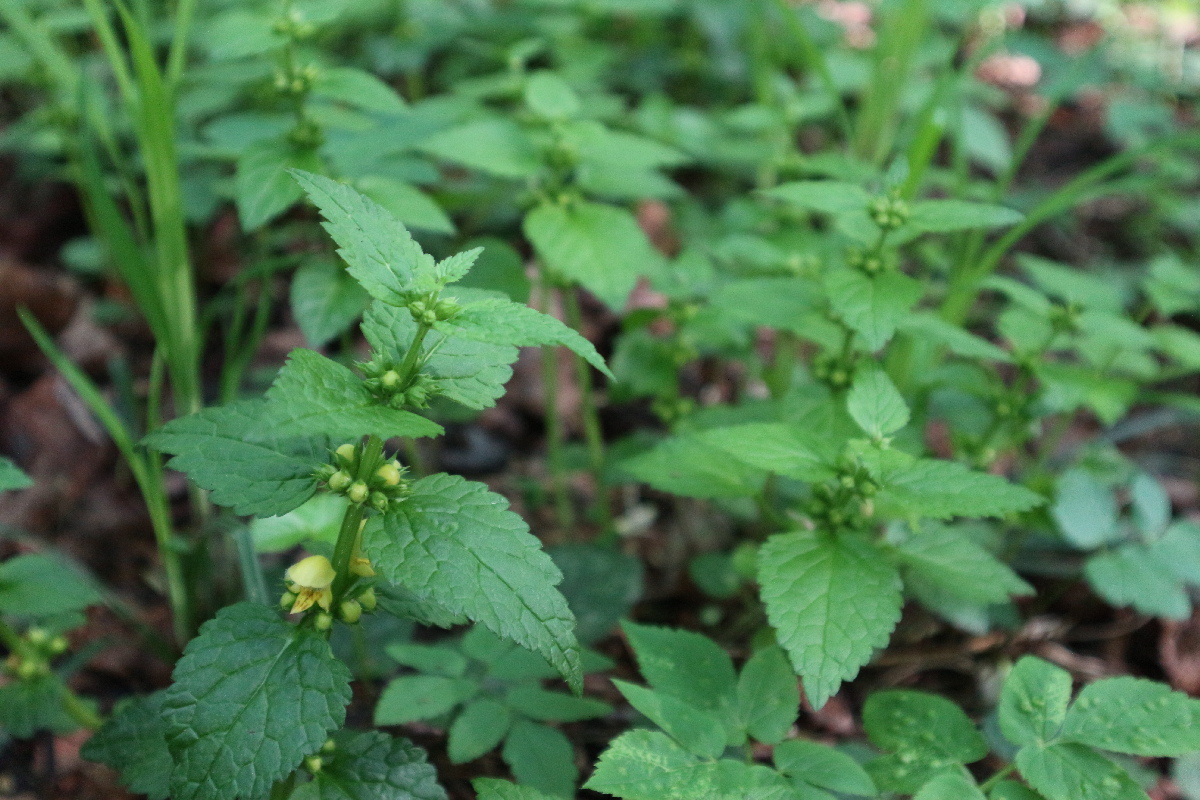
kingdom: Plantae
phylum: Tracheophyta
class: Magnoliopsida
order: Lamiales
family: Lamiaceae
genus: Lamium
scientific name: Lamium galeobdolon
